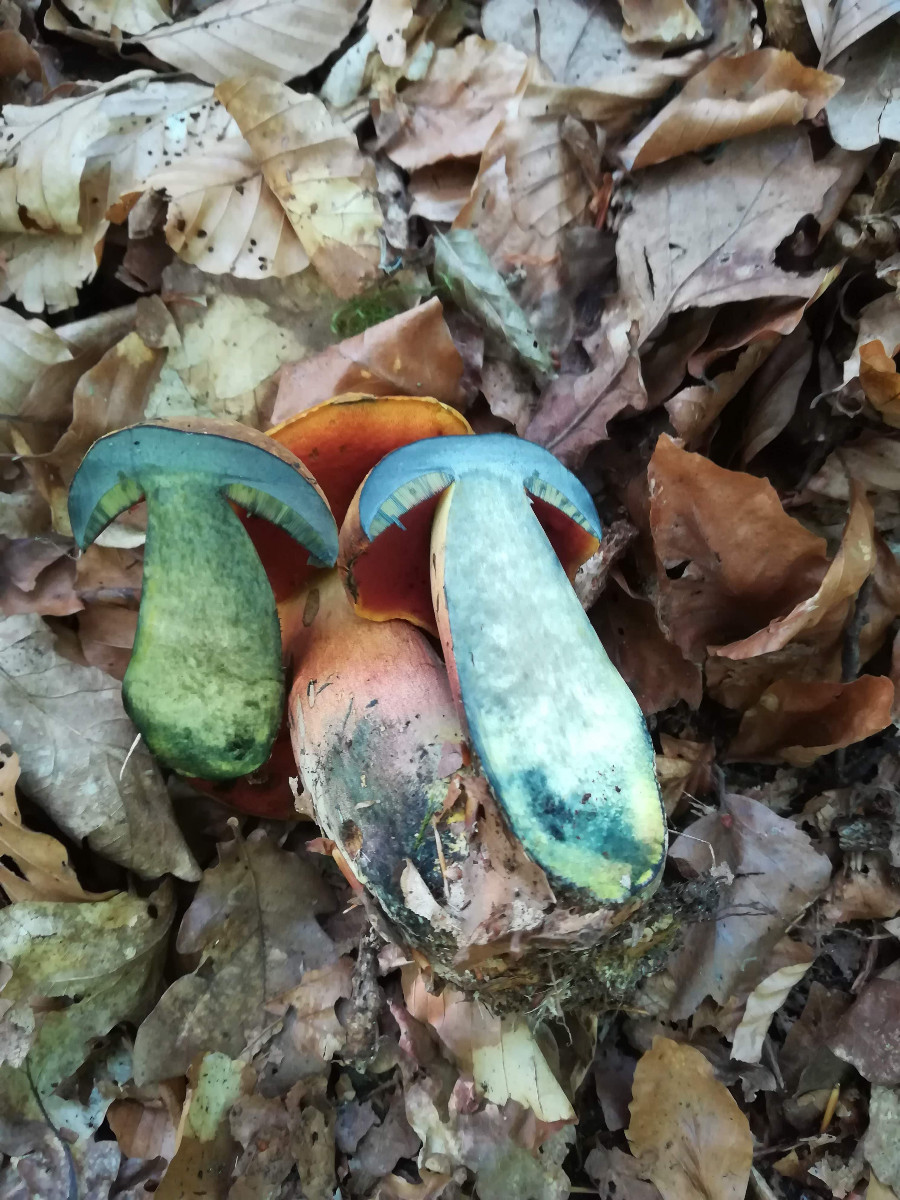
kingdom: Fungi
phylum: Basidiomycota
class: Agaricomycetes
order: Boletales
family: Boletaceae
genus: Neoboletus
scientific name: Neoboletus erythropus
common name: punktstokket indigorørhat
